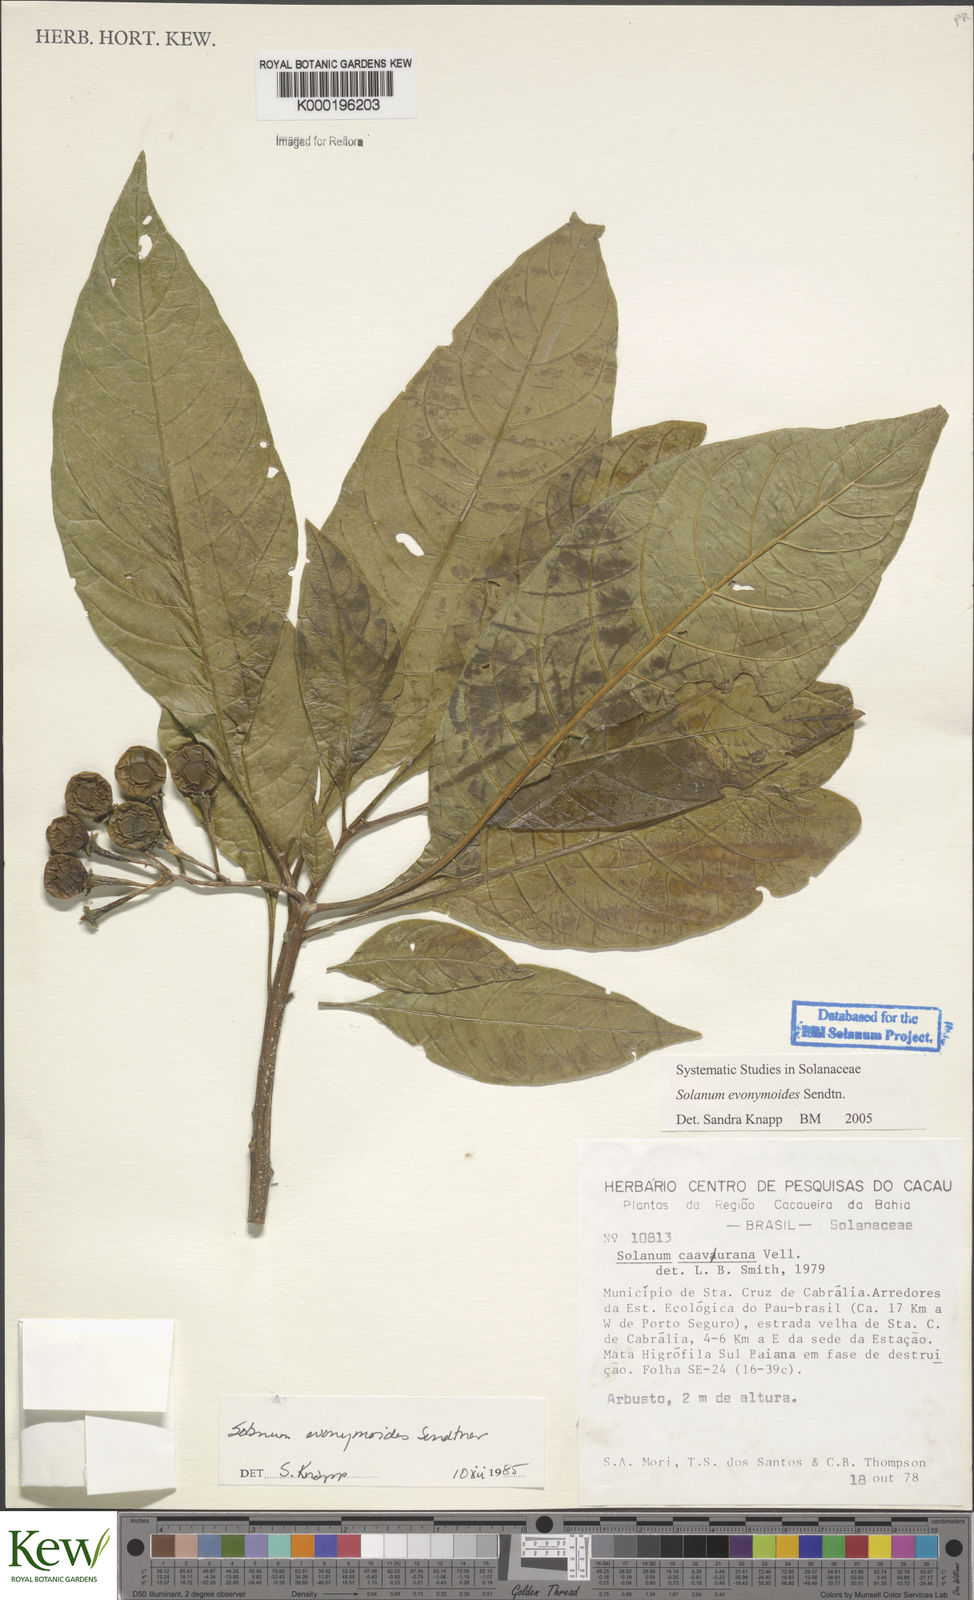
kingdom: Plantae
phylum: Tracheophyta
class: Magnoliopsida
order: Solanales
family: Solanaceae
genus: Solanum
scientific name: Solanum evonymoides
